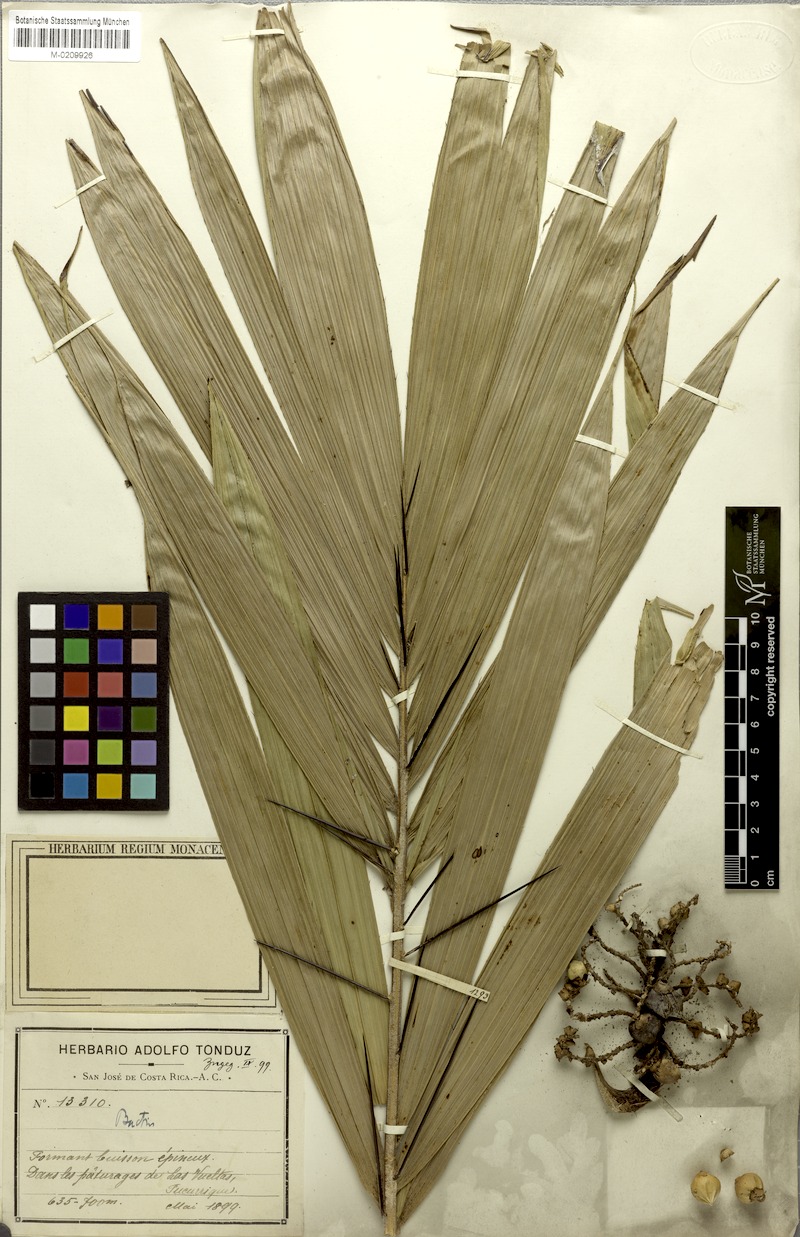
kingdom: Plantae
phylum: Tracheophyta
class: Liliopsida
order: Arecales
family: Arecaceae
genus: Bactris
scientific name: Bactris caudata
